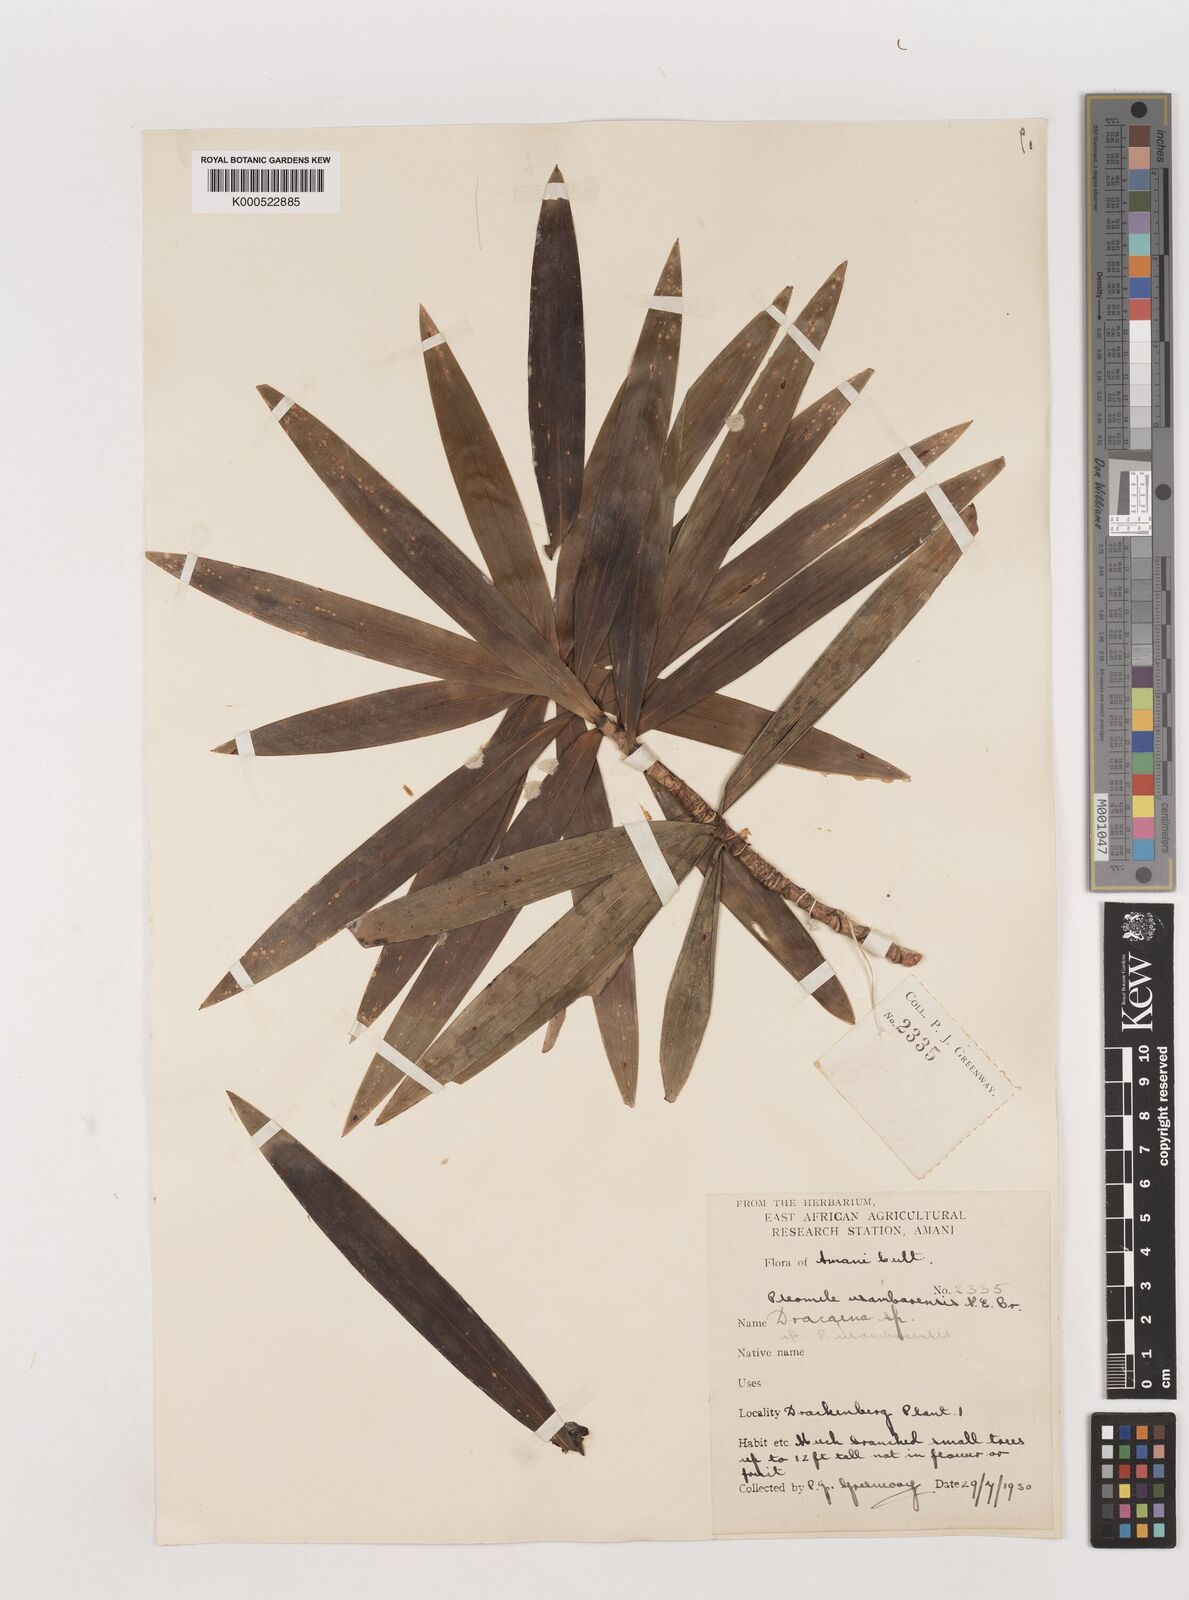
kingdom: Plantae
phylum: Tracheophyta
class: Liliopsida
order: Asparagales
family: Asparagaceae
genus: Dracaena
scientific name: Dracaena usambarensis
